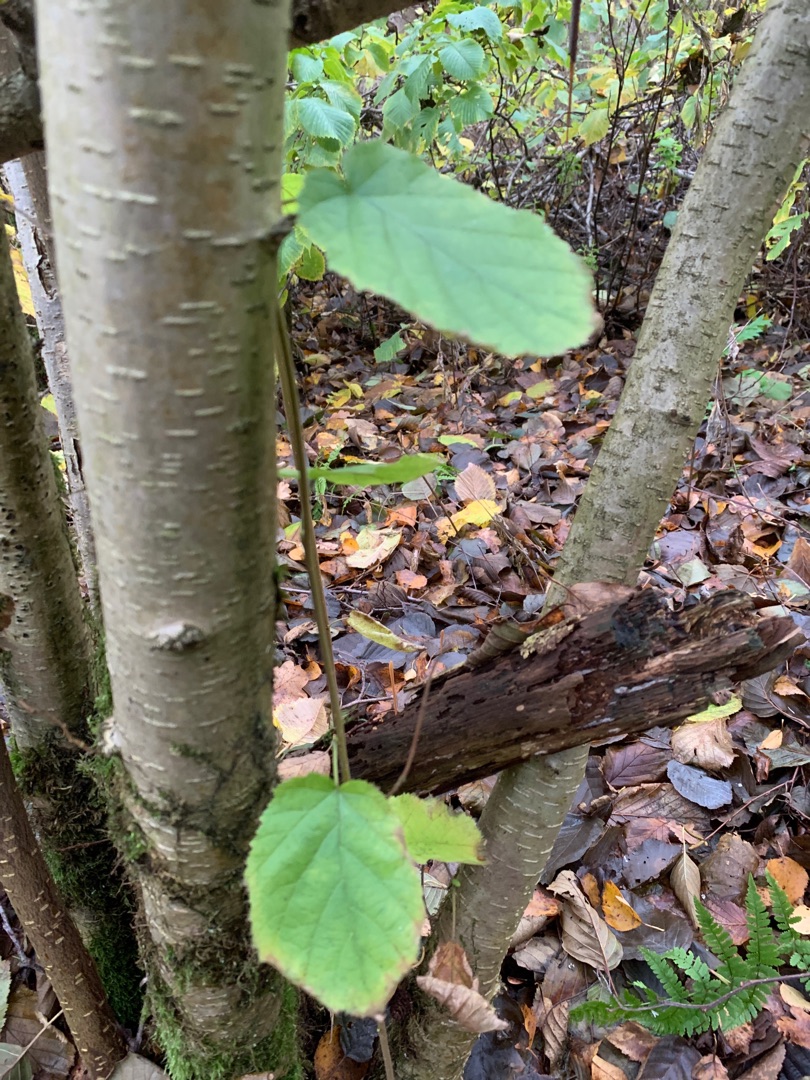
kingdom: Plantae
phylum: Tracheophyta
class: Magnoliopsida
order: Fagales
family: Betulaceae
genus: Corylus
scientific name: Corylus avellana
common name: Hassel
